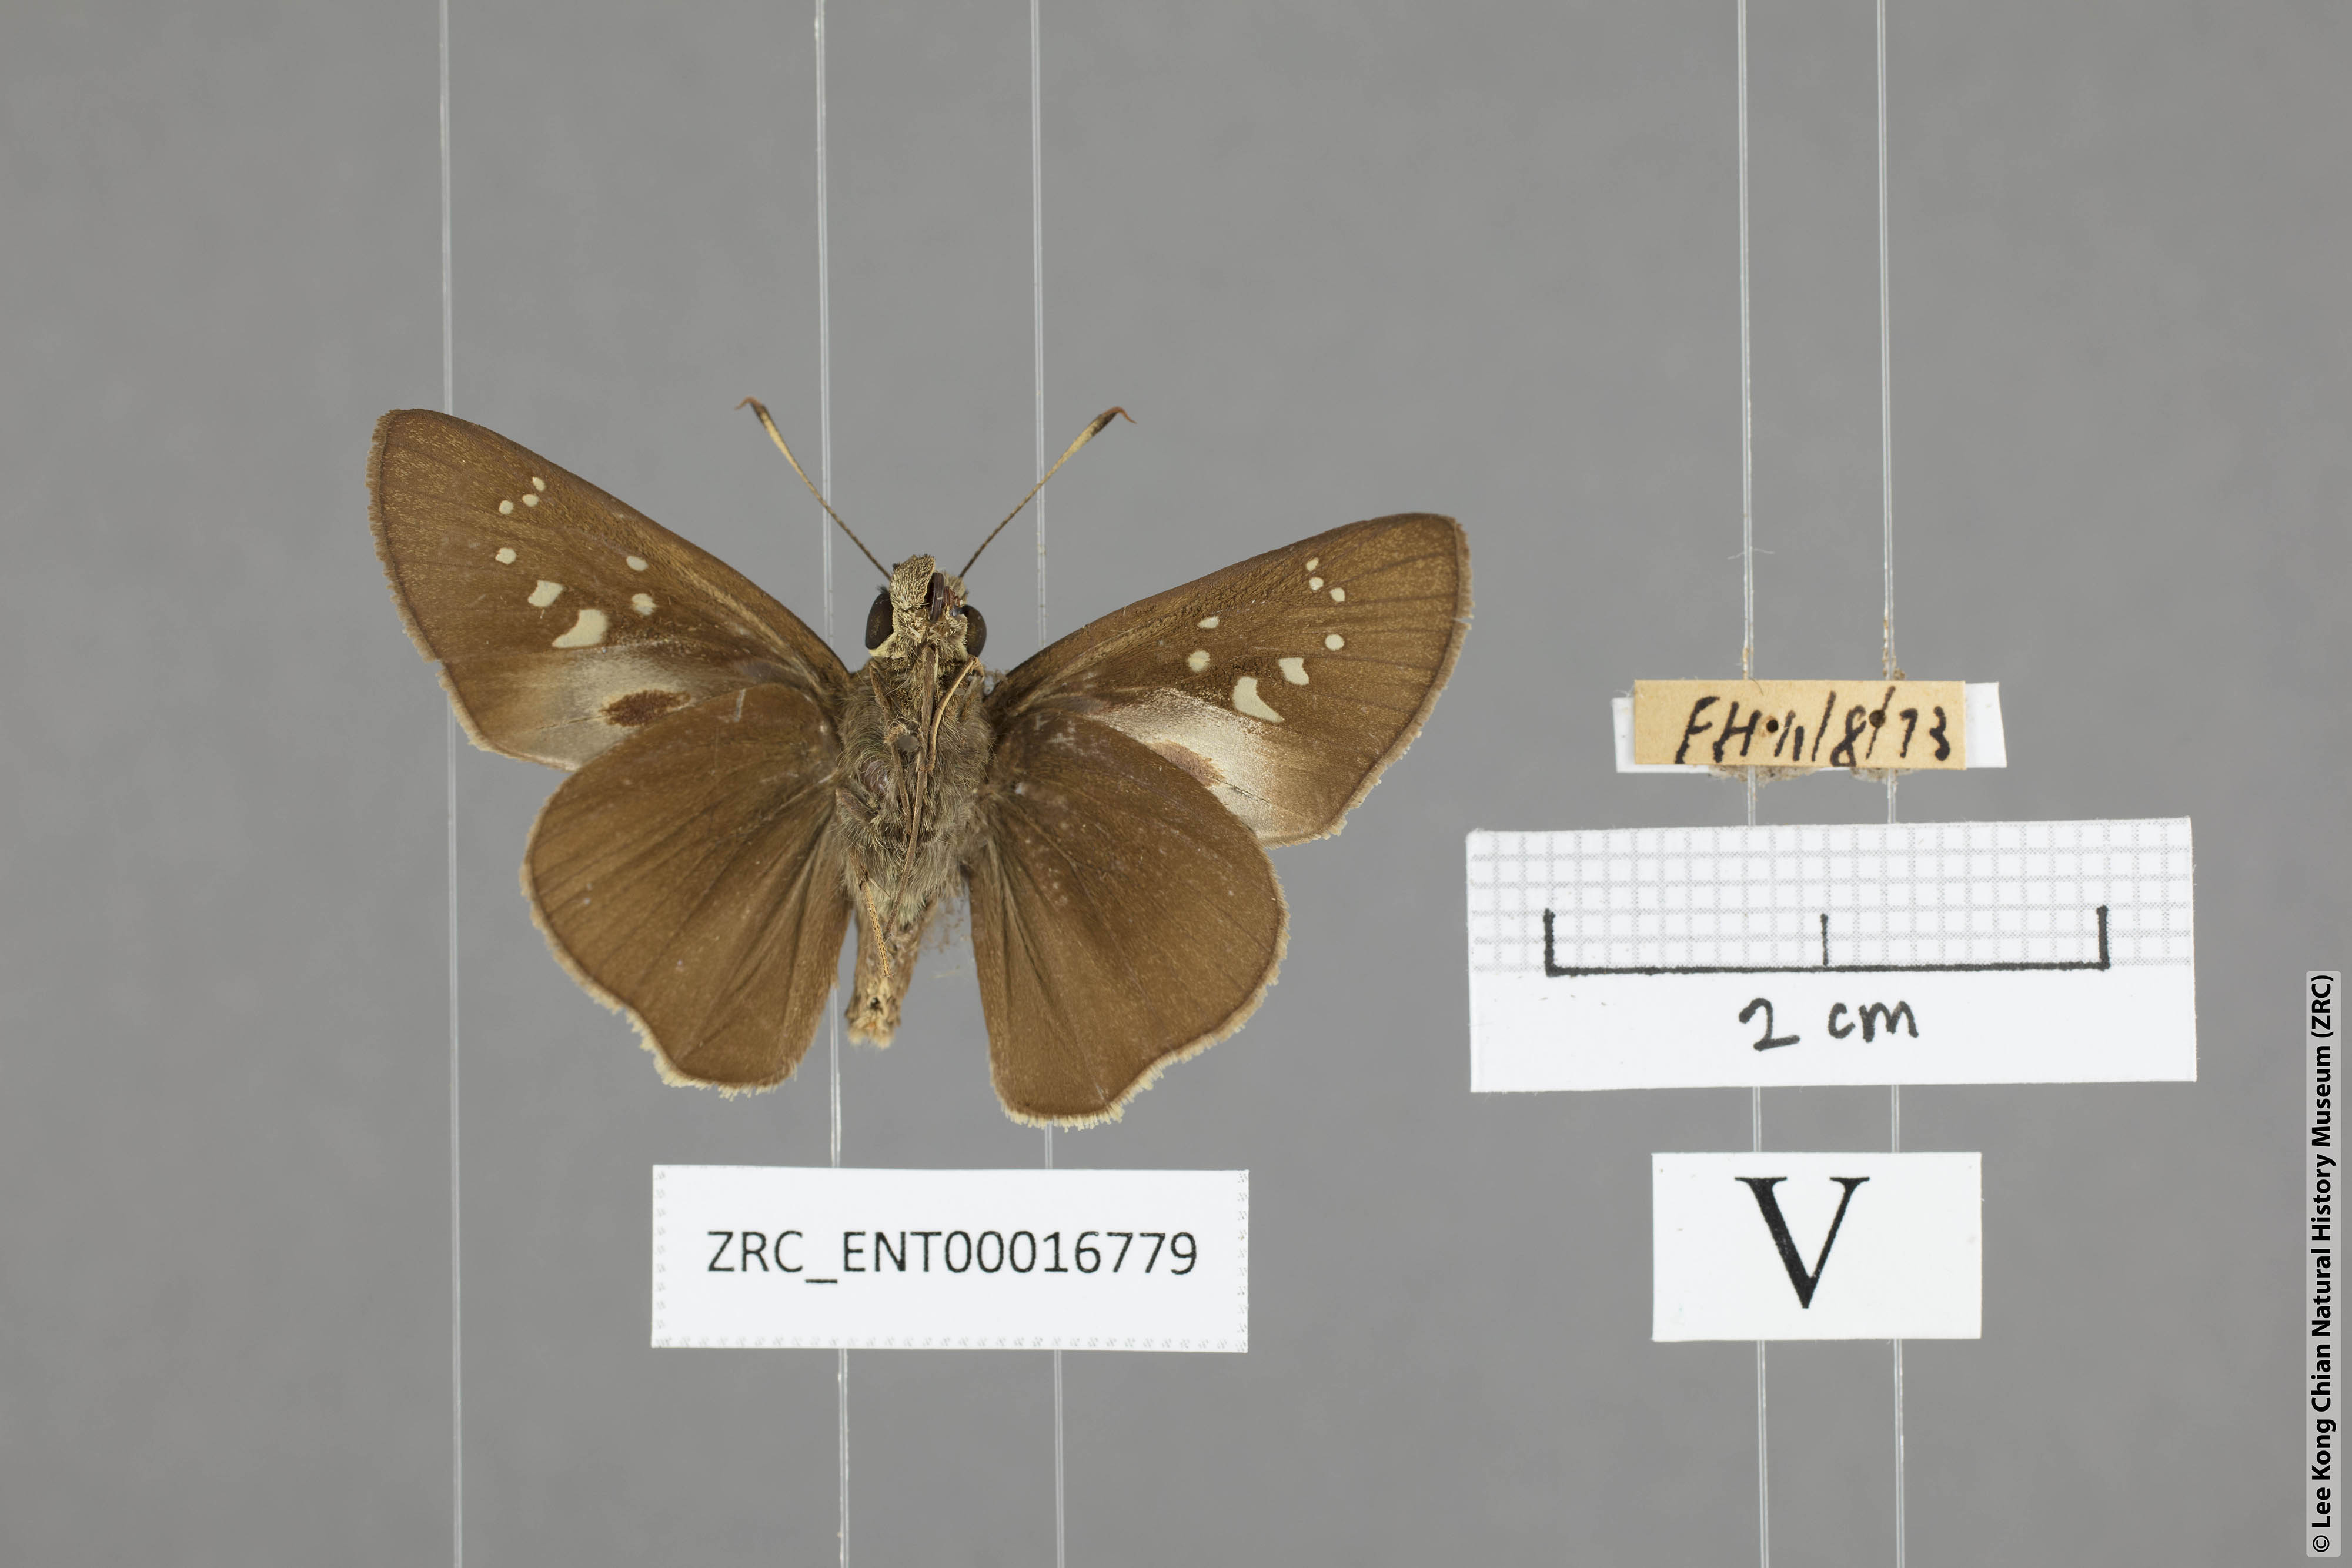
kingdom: Animalia
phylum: Arthropoda
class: Insecta
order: Lepidoptera
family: Hesperiidae
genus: Baoris
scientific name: Baoris farri
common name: Paintbrush swift
